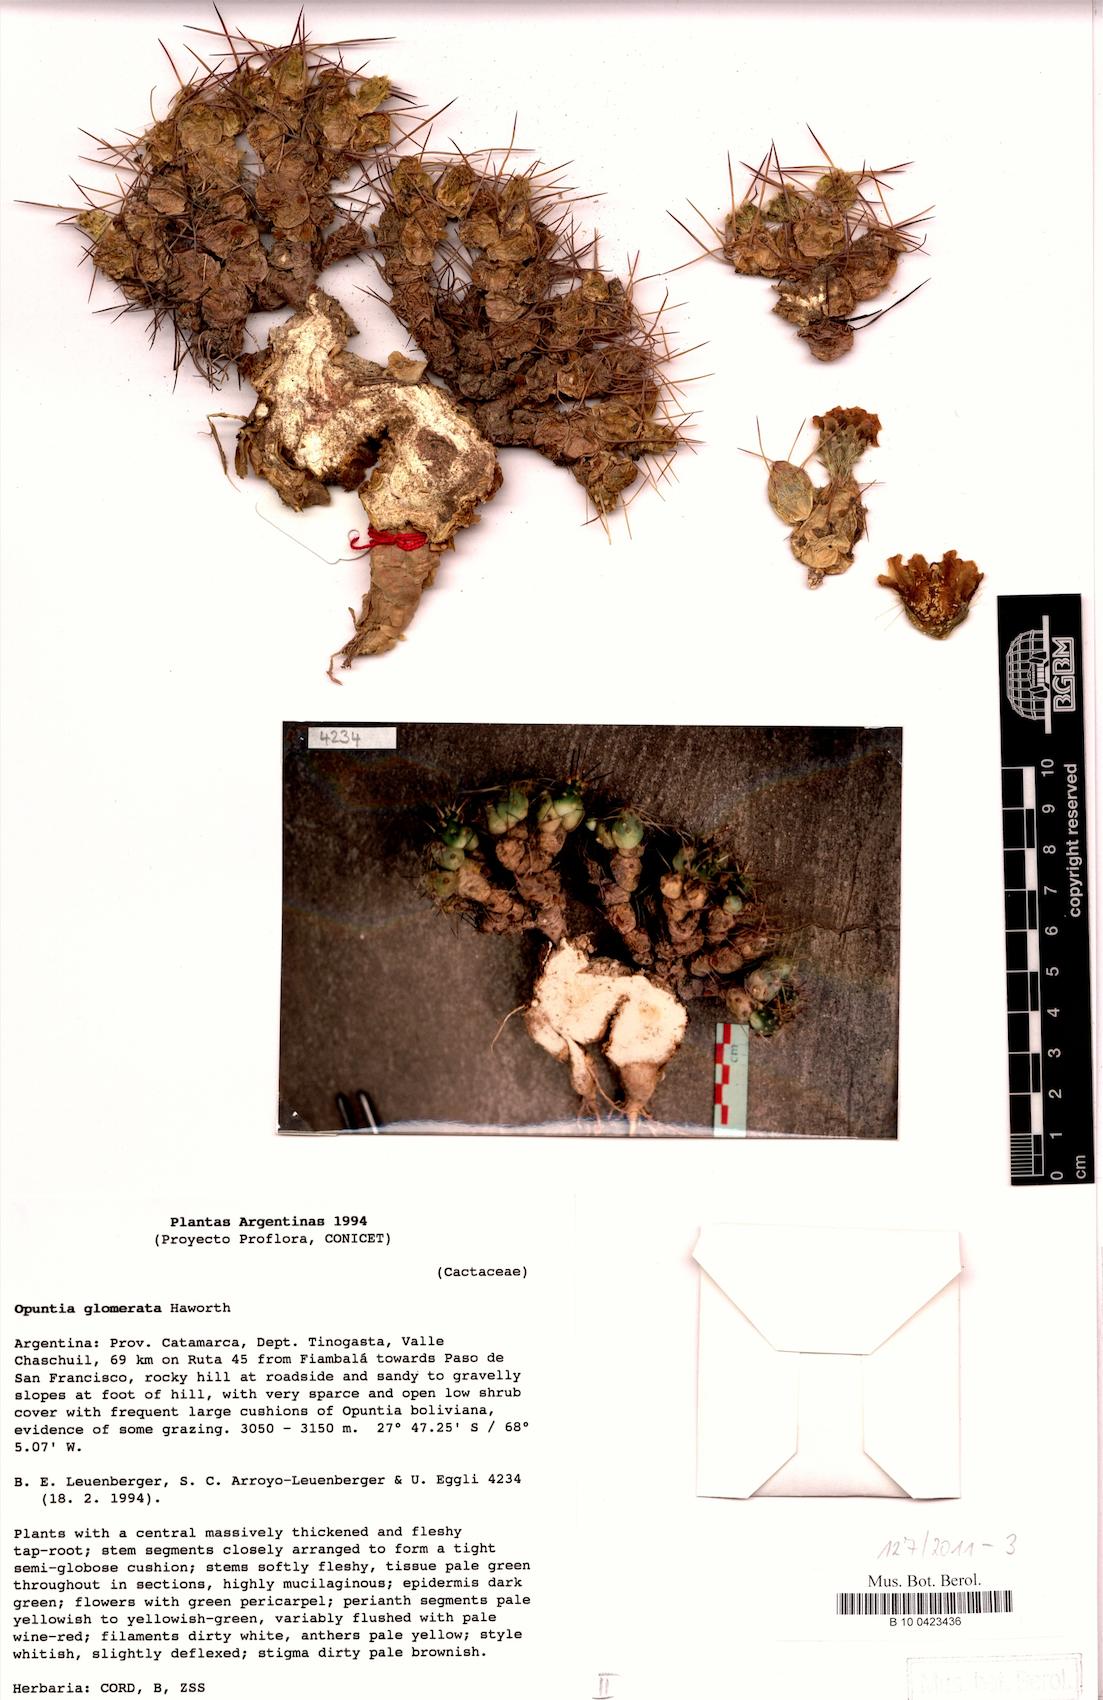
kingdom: Plantae
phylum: Tracheophyta
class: Magnoliopsida
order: Caryophyllales
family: Cactaceae
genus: Maihueniopsis
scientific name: Maihueniopsis glomerata
